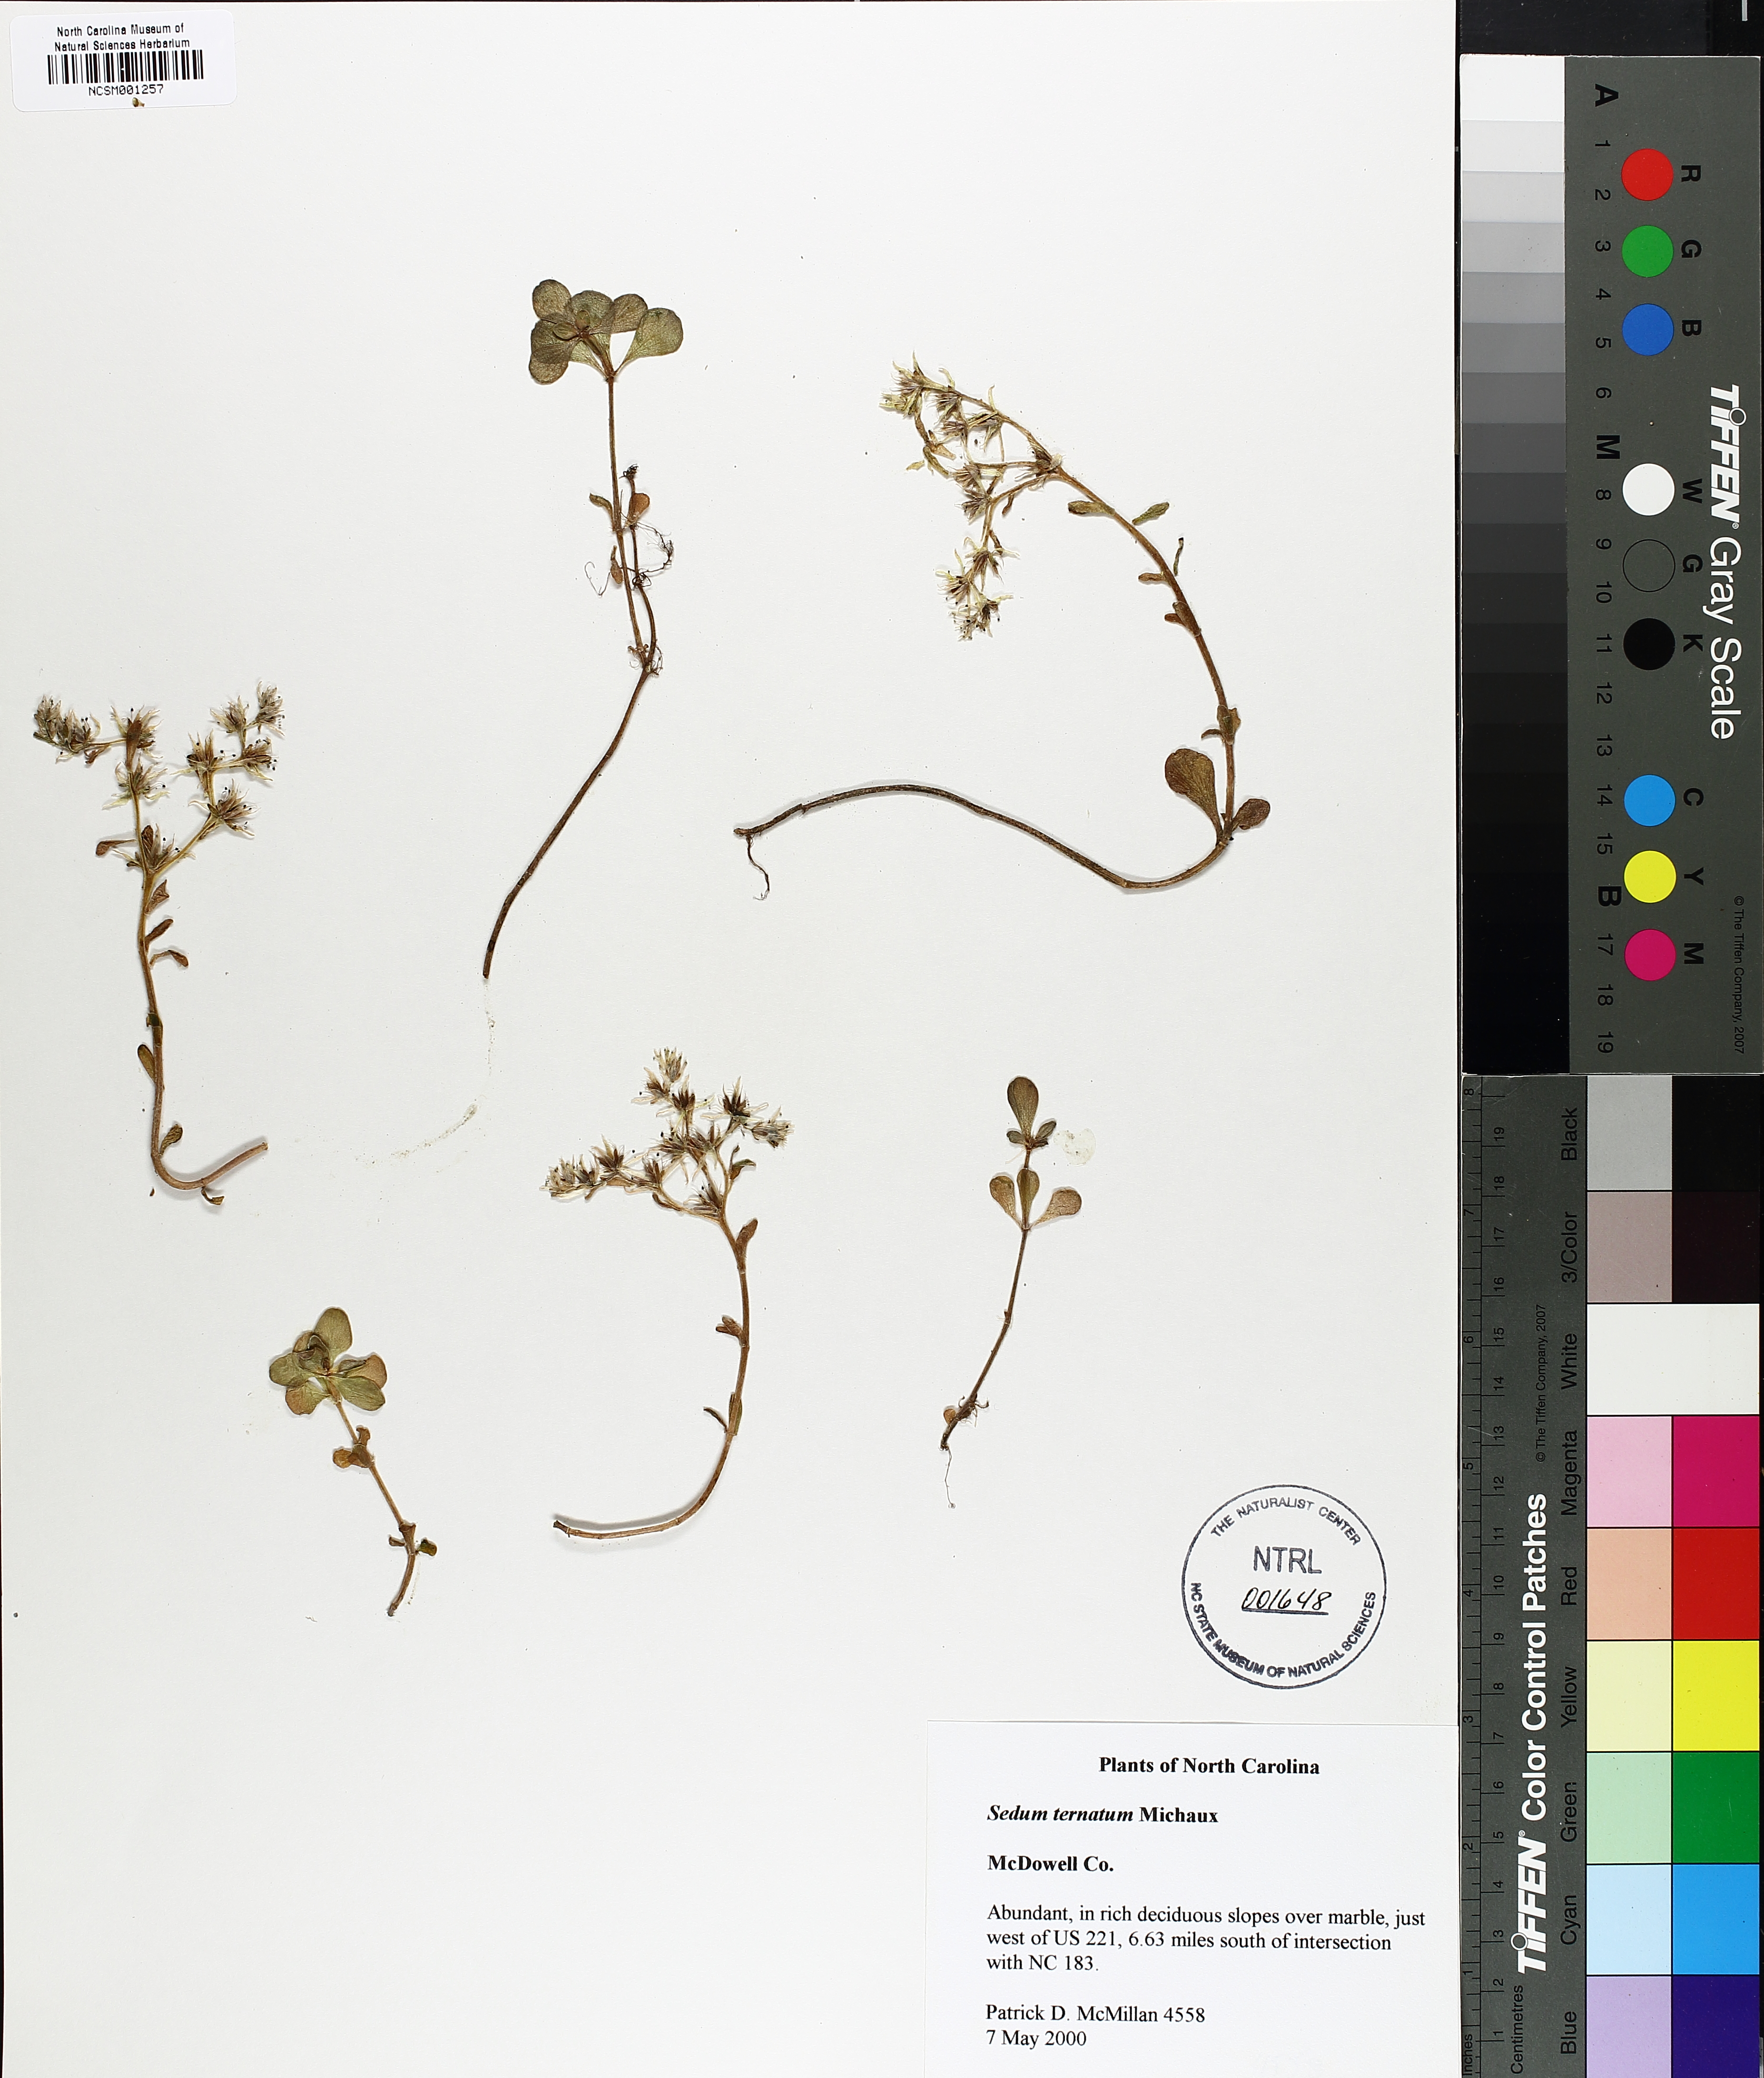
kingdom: Plantae
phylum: Tracheophyta
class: Magnoliopsida
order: Saxifragales
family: Crassulaceae
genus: Sedum
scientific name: Sedum ternatum
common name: Wild stonecrop
